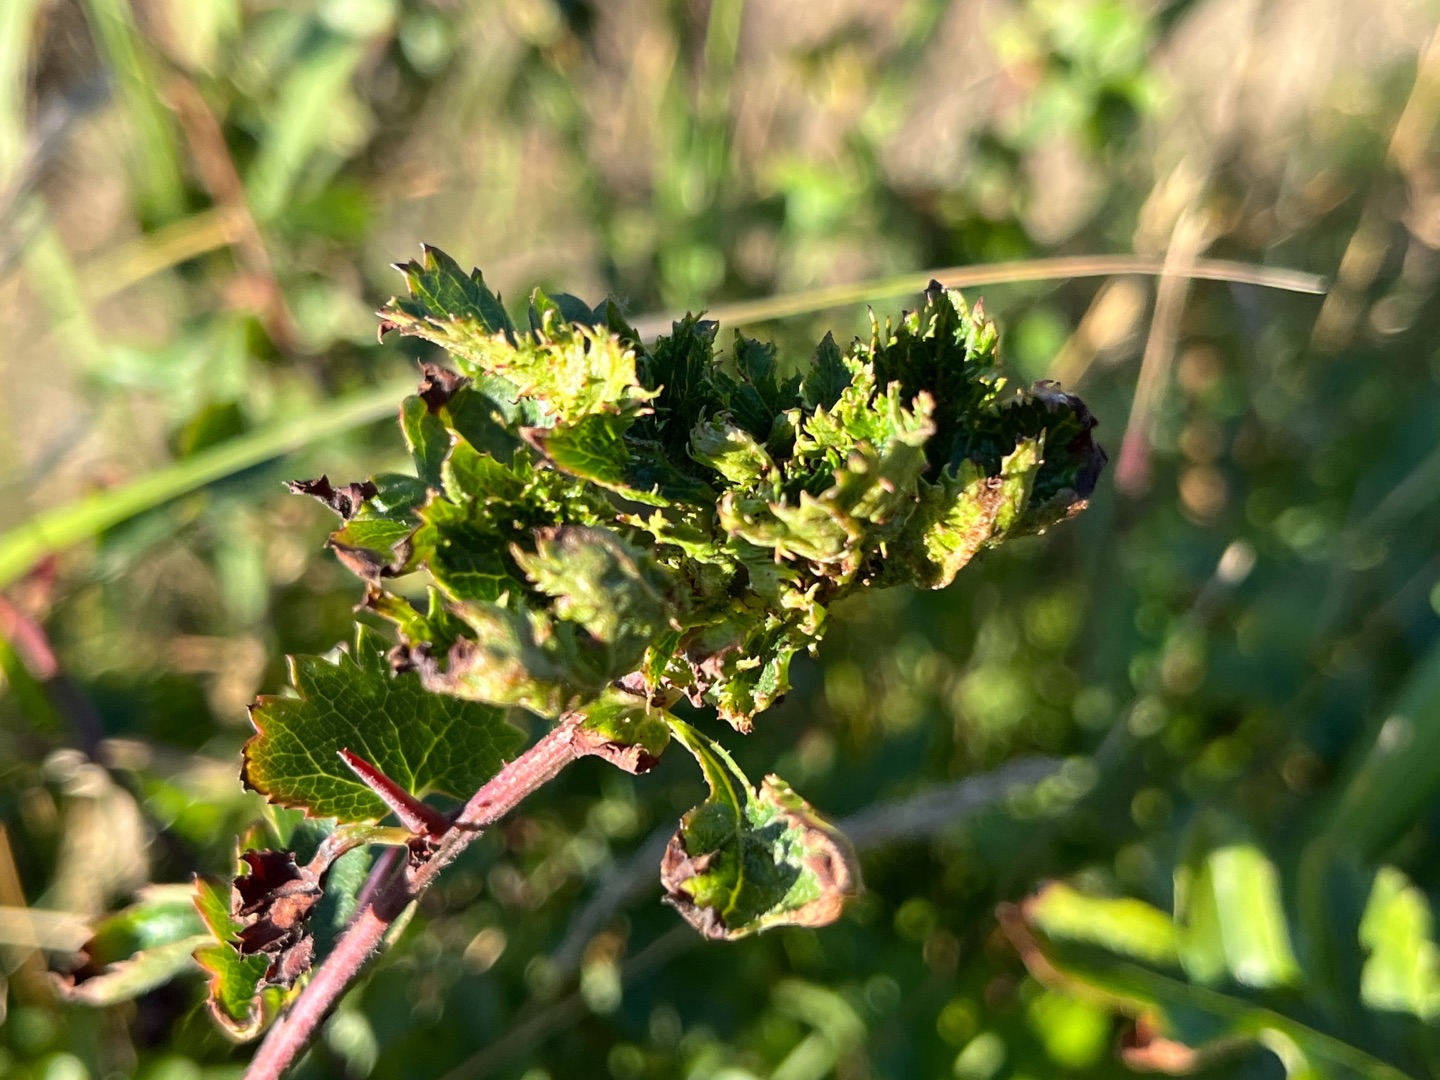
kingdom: Animalia
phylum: Arthropoda
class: Insecta
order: Diptera
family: Cecidomyiidae
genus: Dasineura
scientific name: Dasineura crataegi
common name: Tjørnerosetgalmyg
